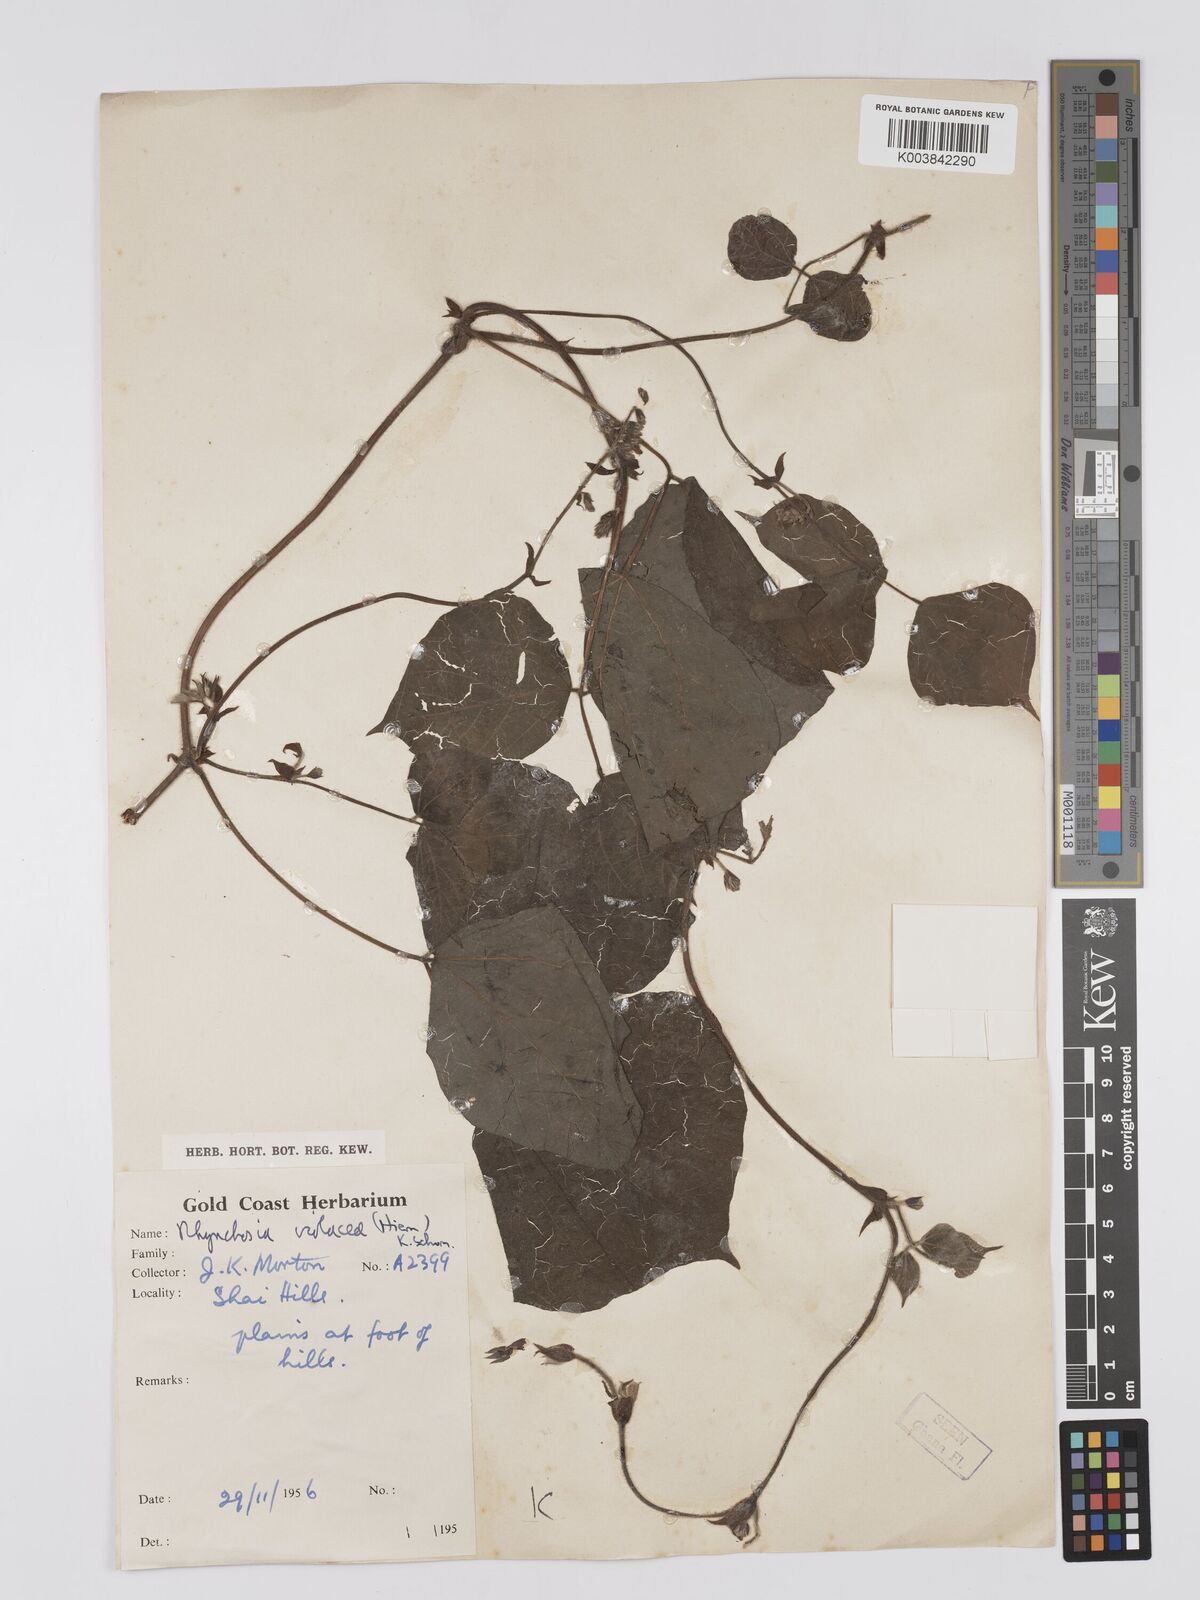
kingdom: Plantae
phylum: Tracheophyta
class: Magnoliopsida
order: Fabales
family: Fabaceae
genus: Rhynchosia
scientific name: Rhynchosia viscosa
